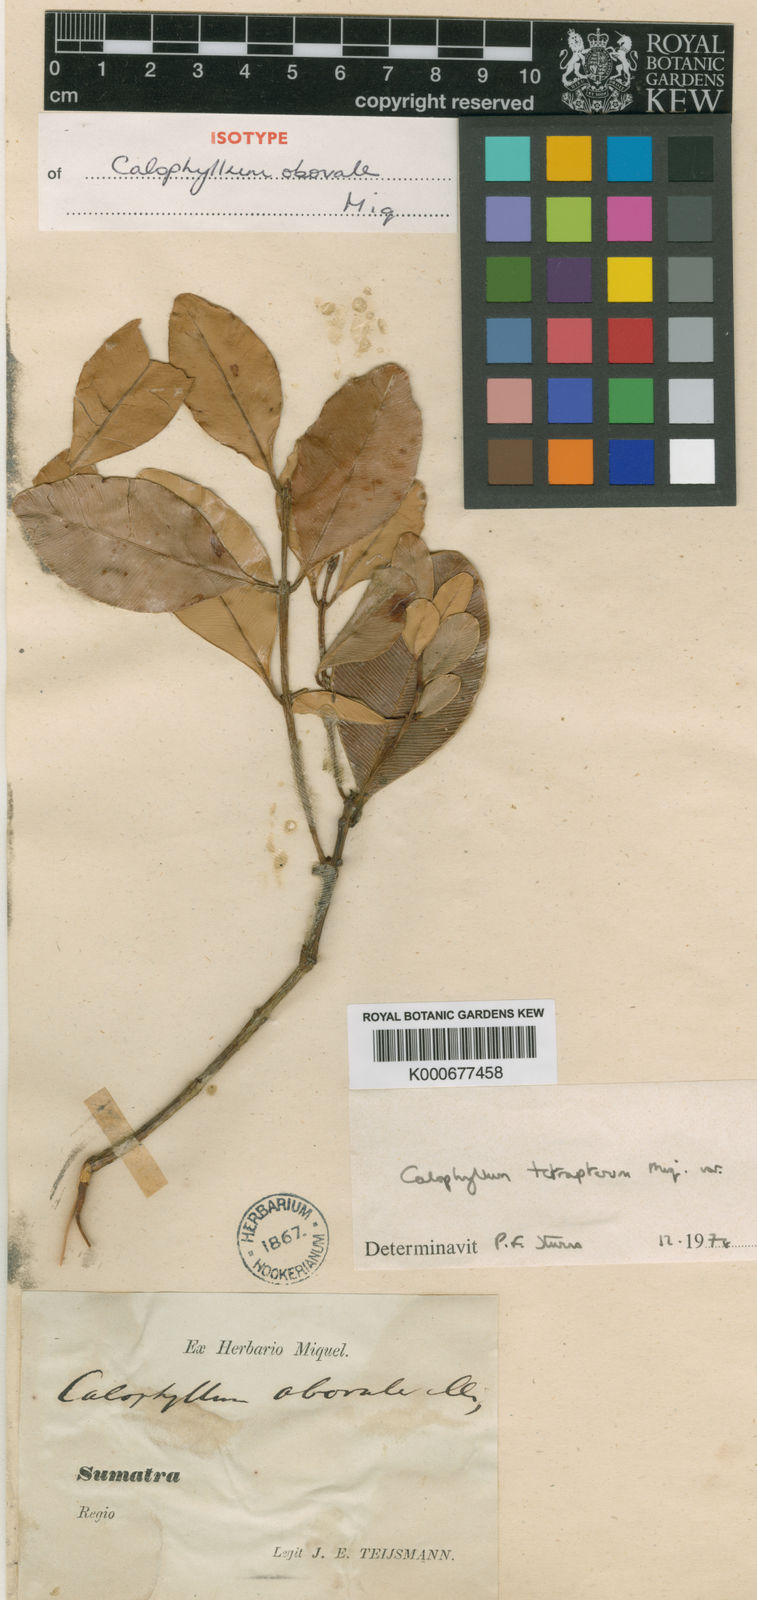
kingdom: Plantae
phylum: Tracheophyta
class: Magnoliopsida
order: Malpighiales
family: Calophyllaceae
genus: Calophyllum
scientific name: Calophyllum tetrapterum
